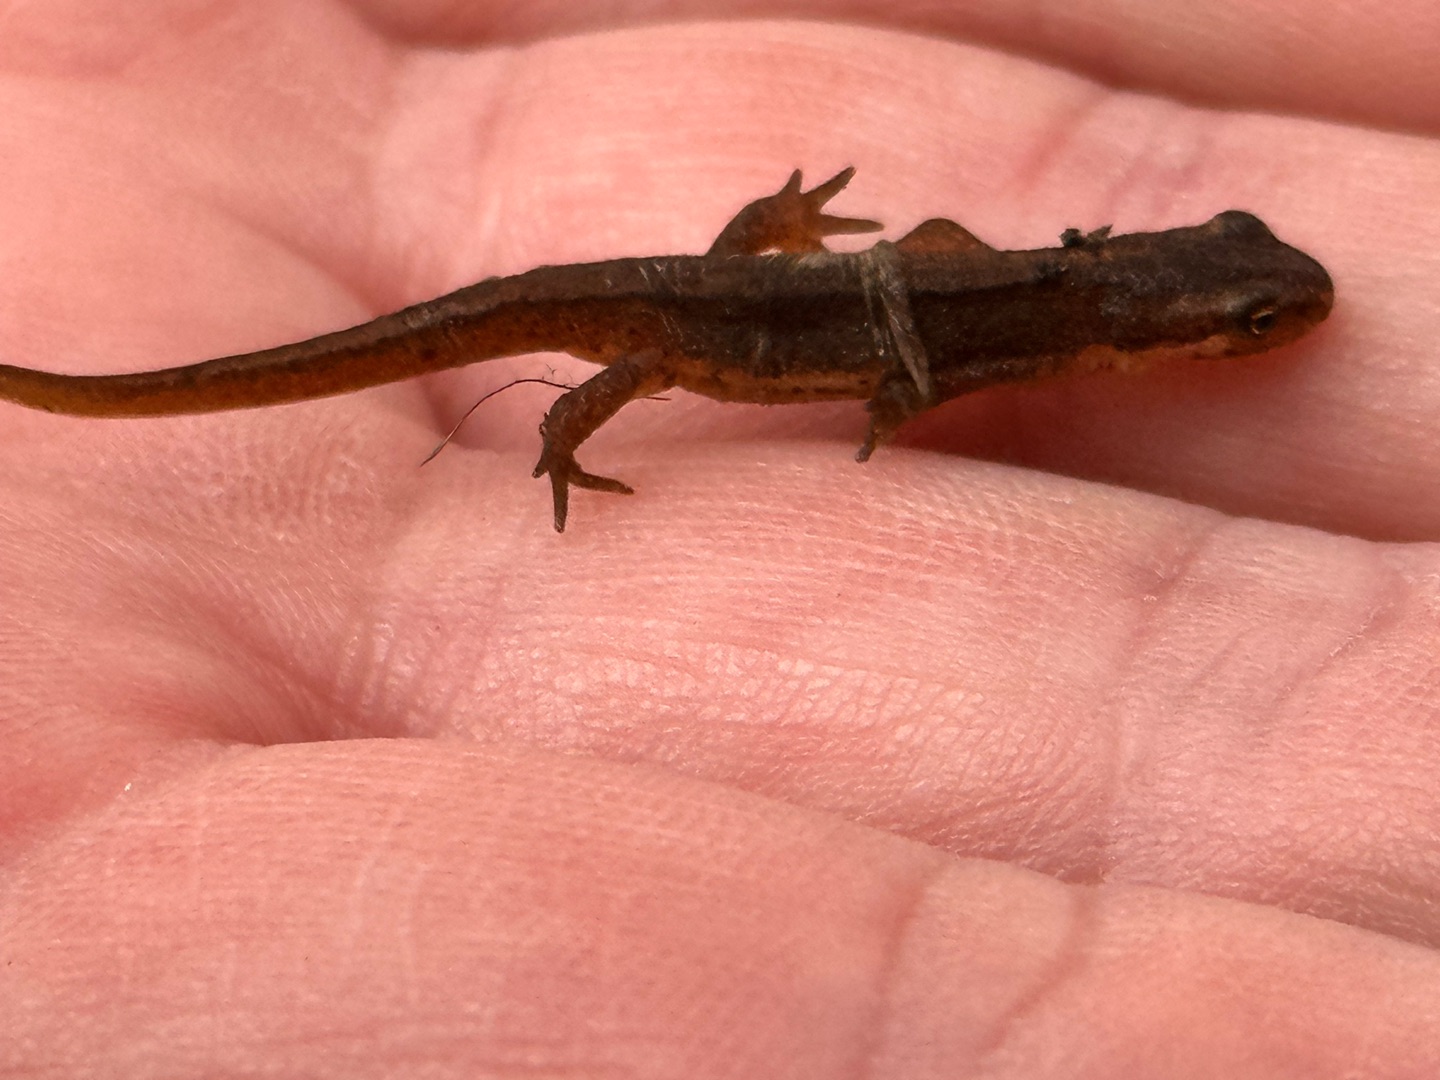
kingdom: Animalia
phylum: Chordata
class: Amphibia
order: Caudata
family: Salamandridae
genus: Lissotriton
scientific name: Lissotriton vulgaris
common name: Lille vandsalamander
